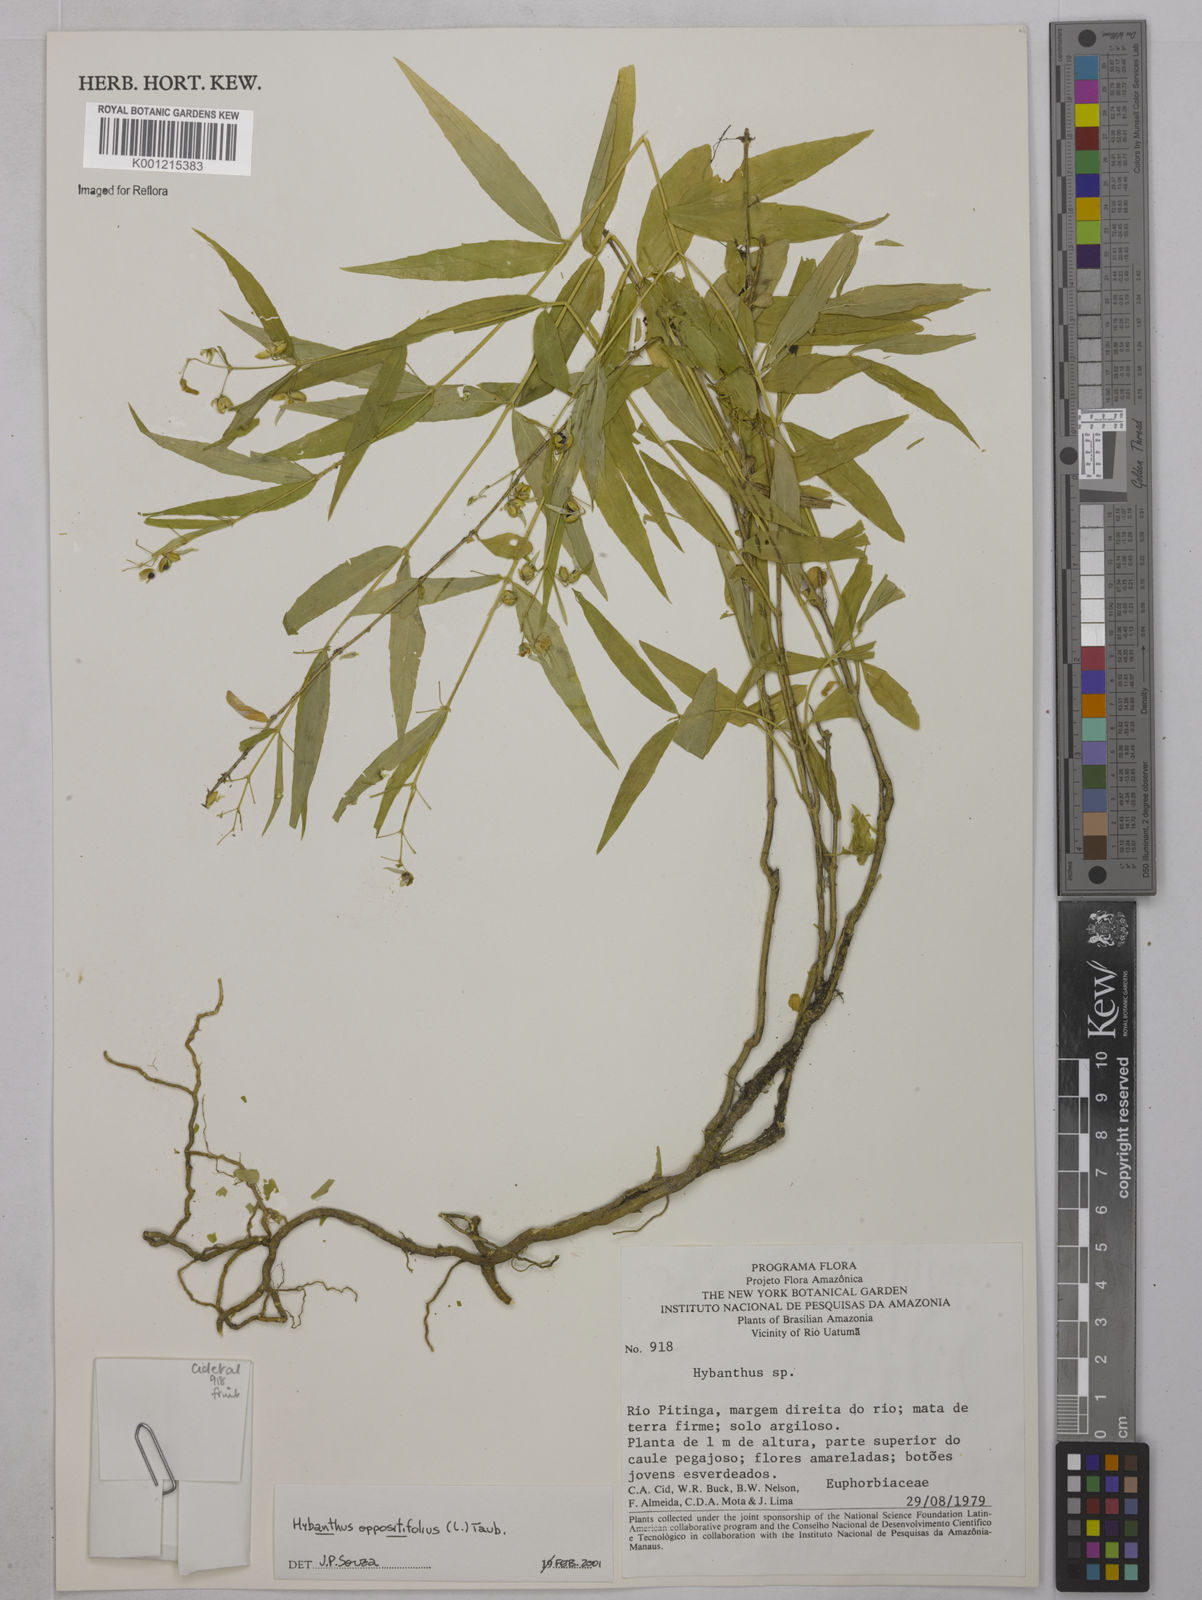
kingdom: Plantae
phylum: Tracheophyta
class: Magnoliopsida
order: Malpighiales
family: Violaceae
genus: Pombalia
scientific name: Pombalia oppositifolia
